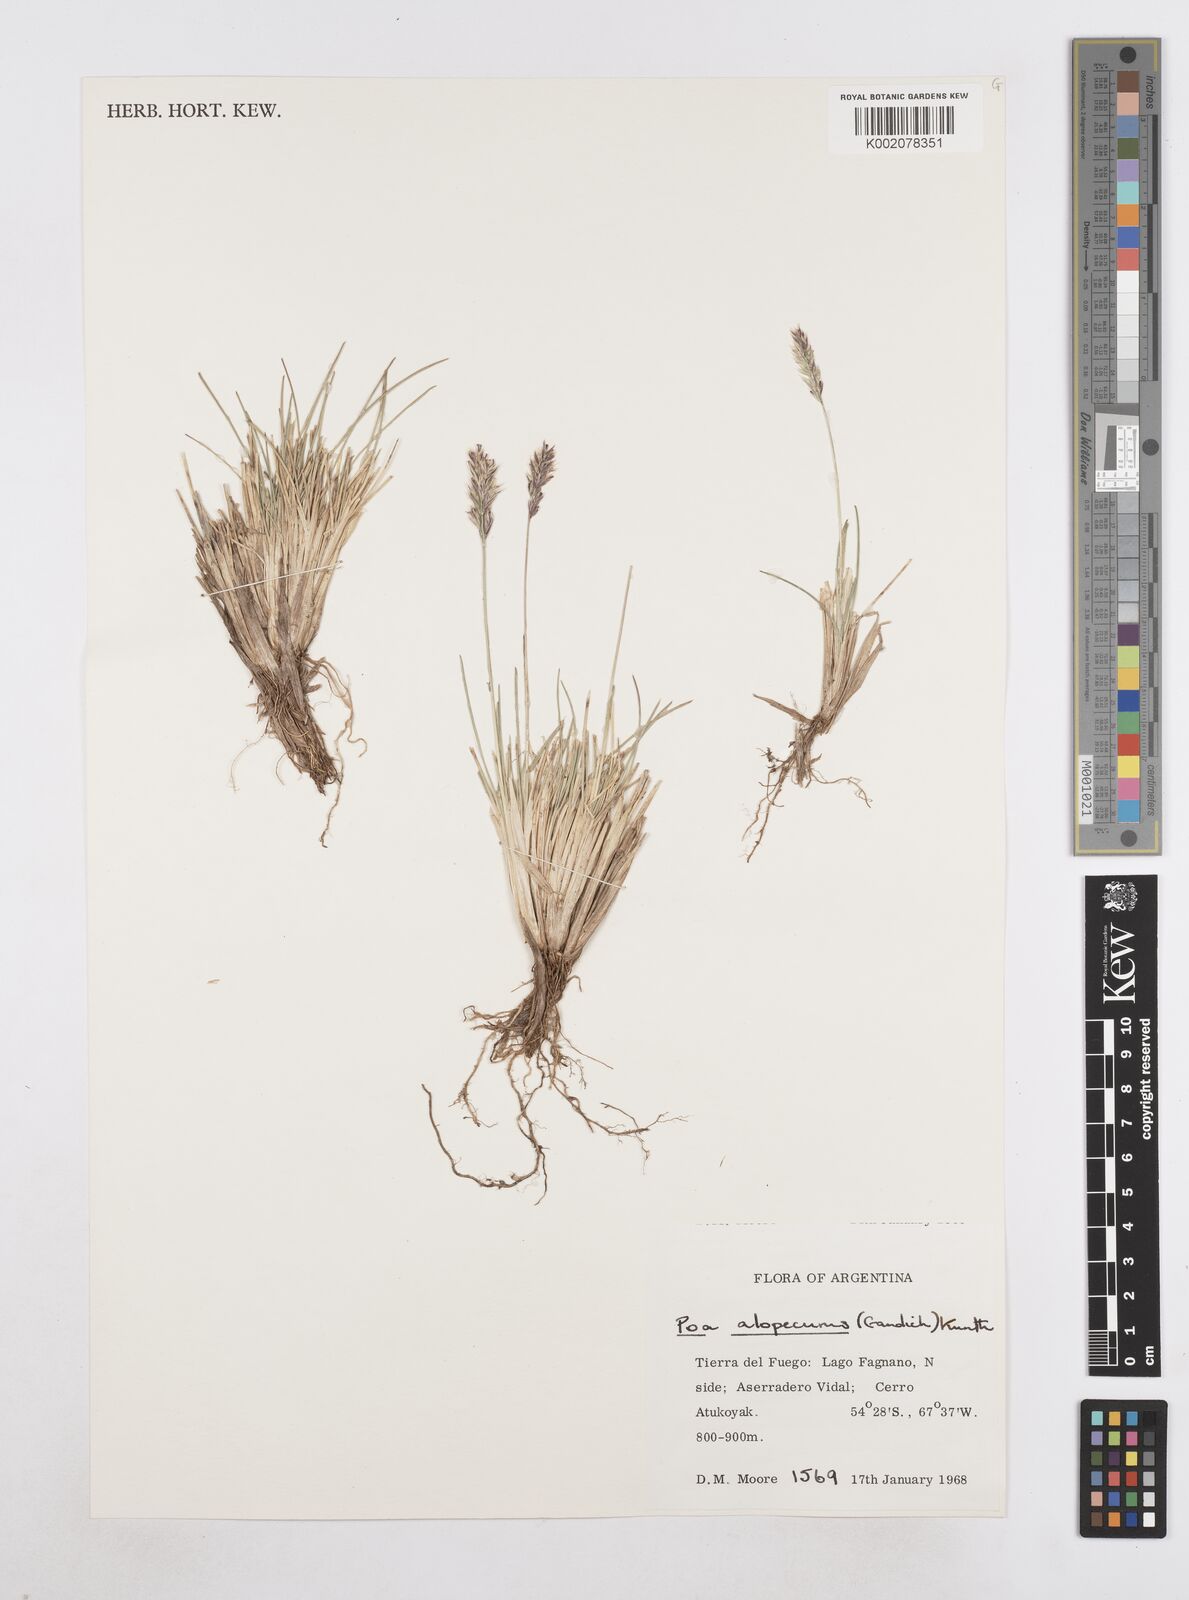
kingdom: Plantae
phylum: Tracheophyta
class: Liliopsida
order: Poales
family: Poaceae
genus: Poa
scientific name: Poa alopecurus
